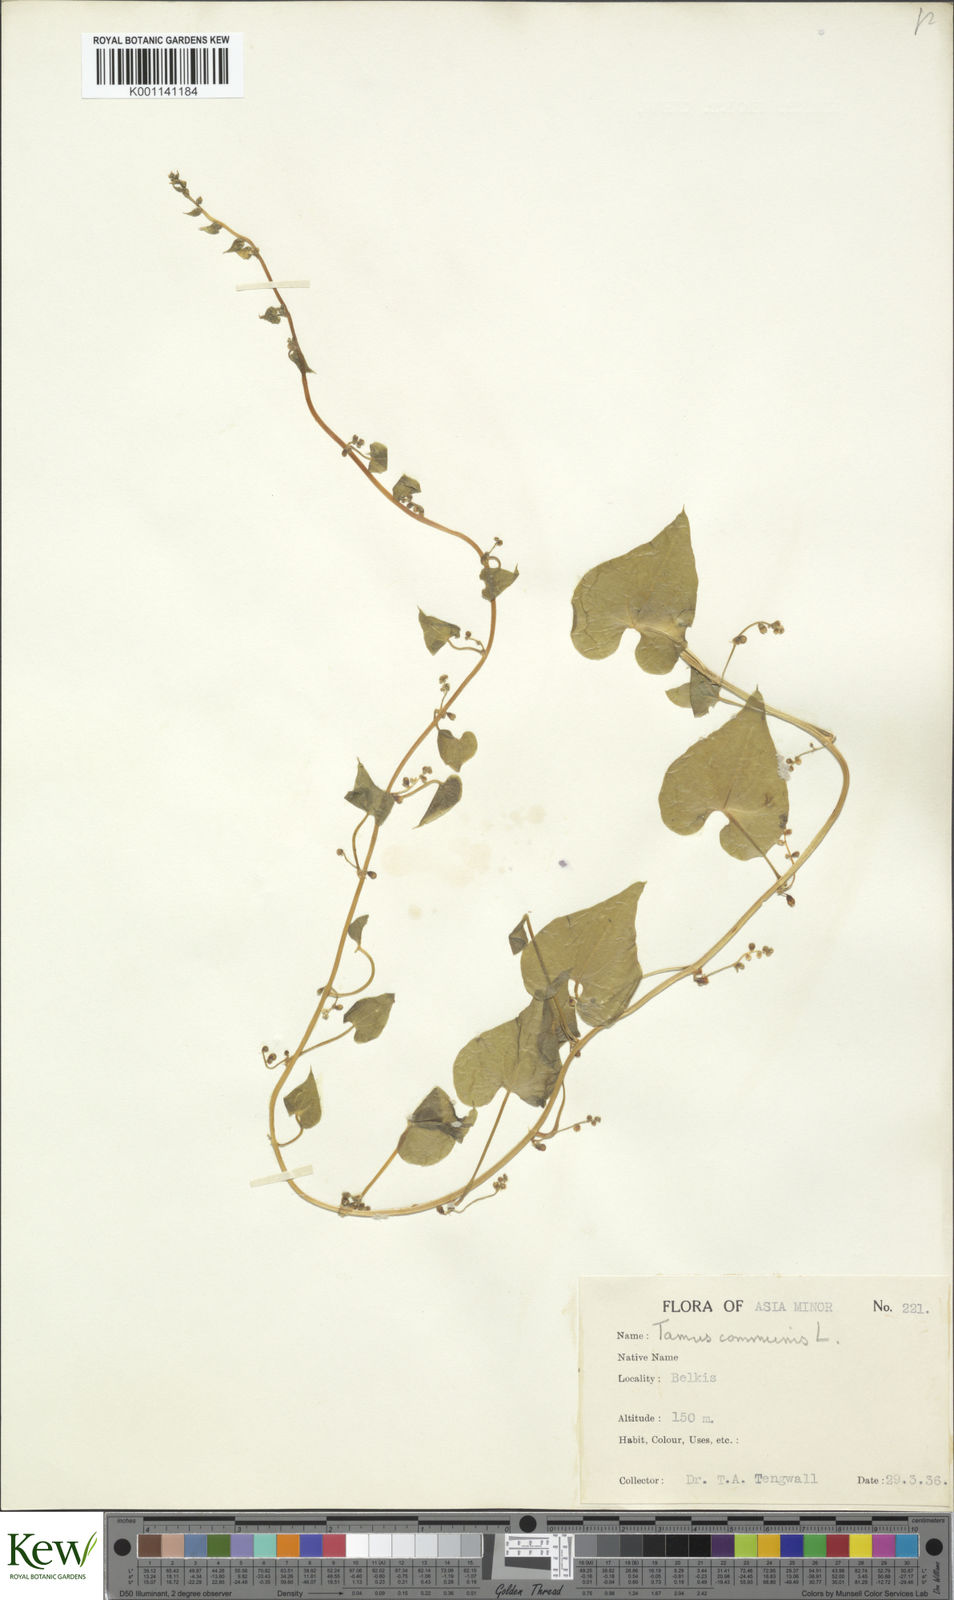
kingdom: Plantae
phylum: Tracheophyta
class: Liliopsida
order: Dioscoreales
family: Dioscoreaceae
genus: Dioscorea
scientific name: Dioscorea communis
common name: Black-bindweed
